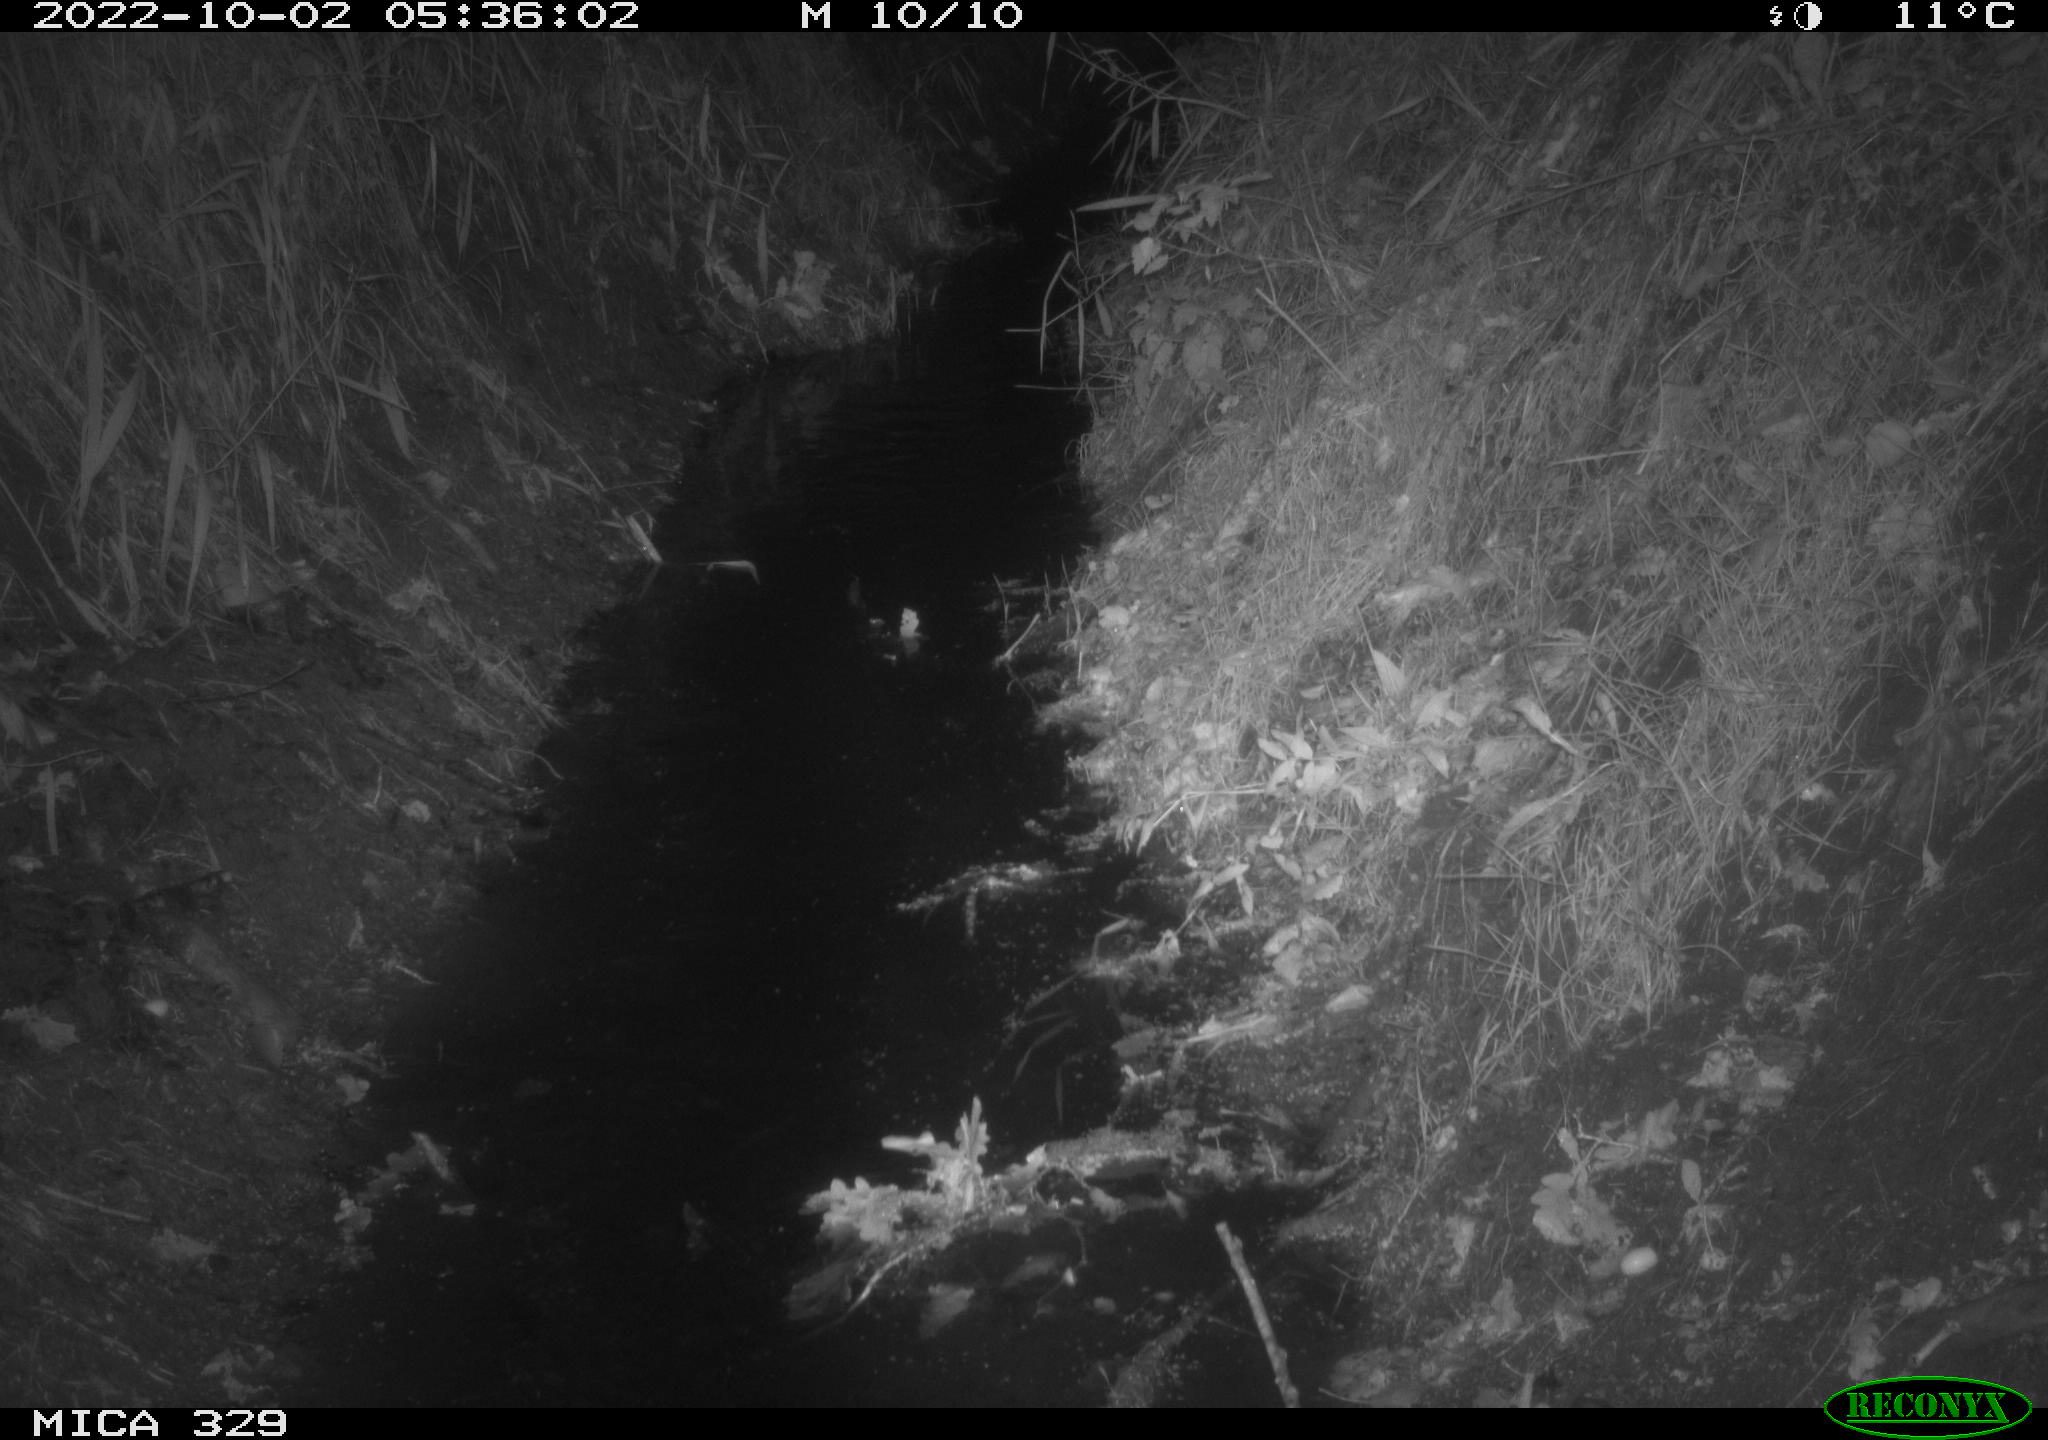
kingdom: Animalia
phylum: Chordata
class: Mammalia
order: Rodentia
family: Cricetidae
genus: Ondatra
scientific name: Ondatra zibethicus
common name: Muskrat
